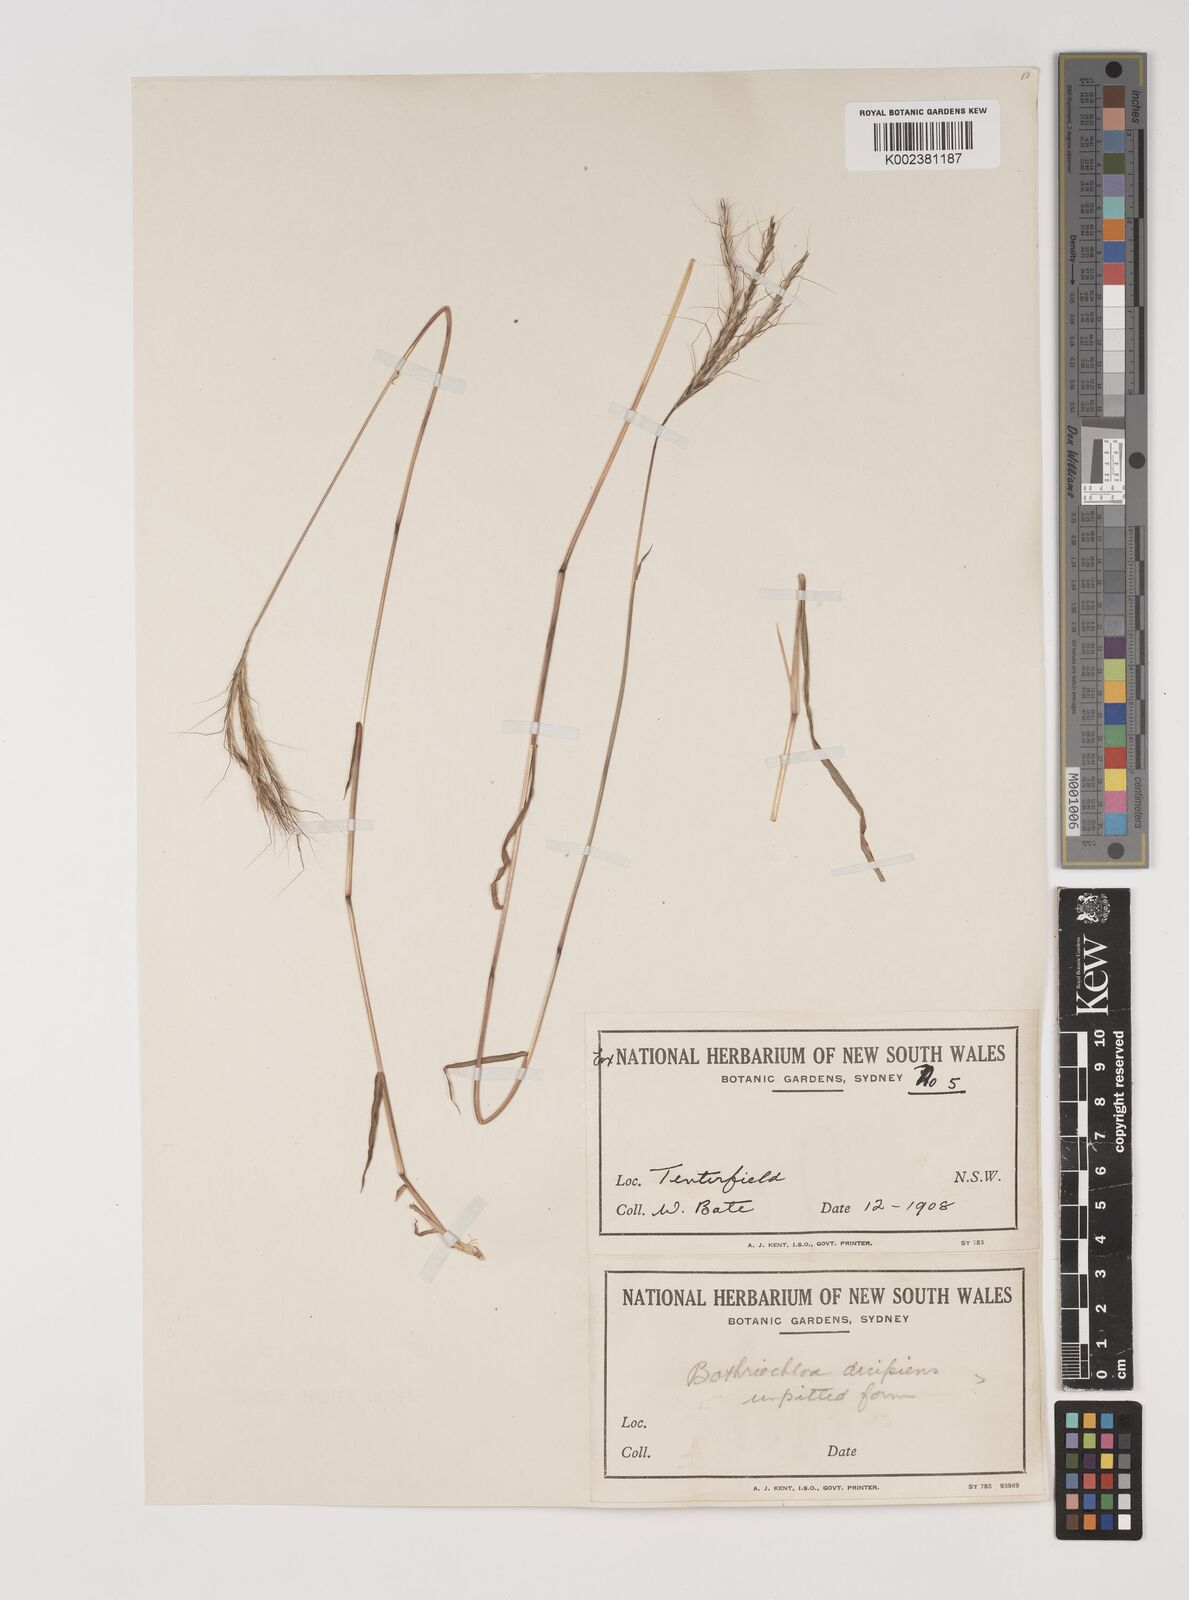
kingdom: Plantae
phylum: Tracheophyta
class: Liliopsida
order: Poales
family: Poaceae
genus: Bothriochloa
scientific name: Bothriochloa macra
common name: Pitted beard grass
